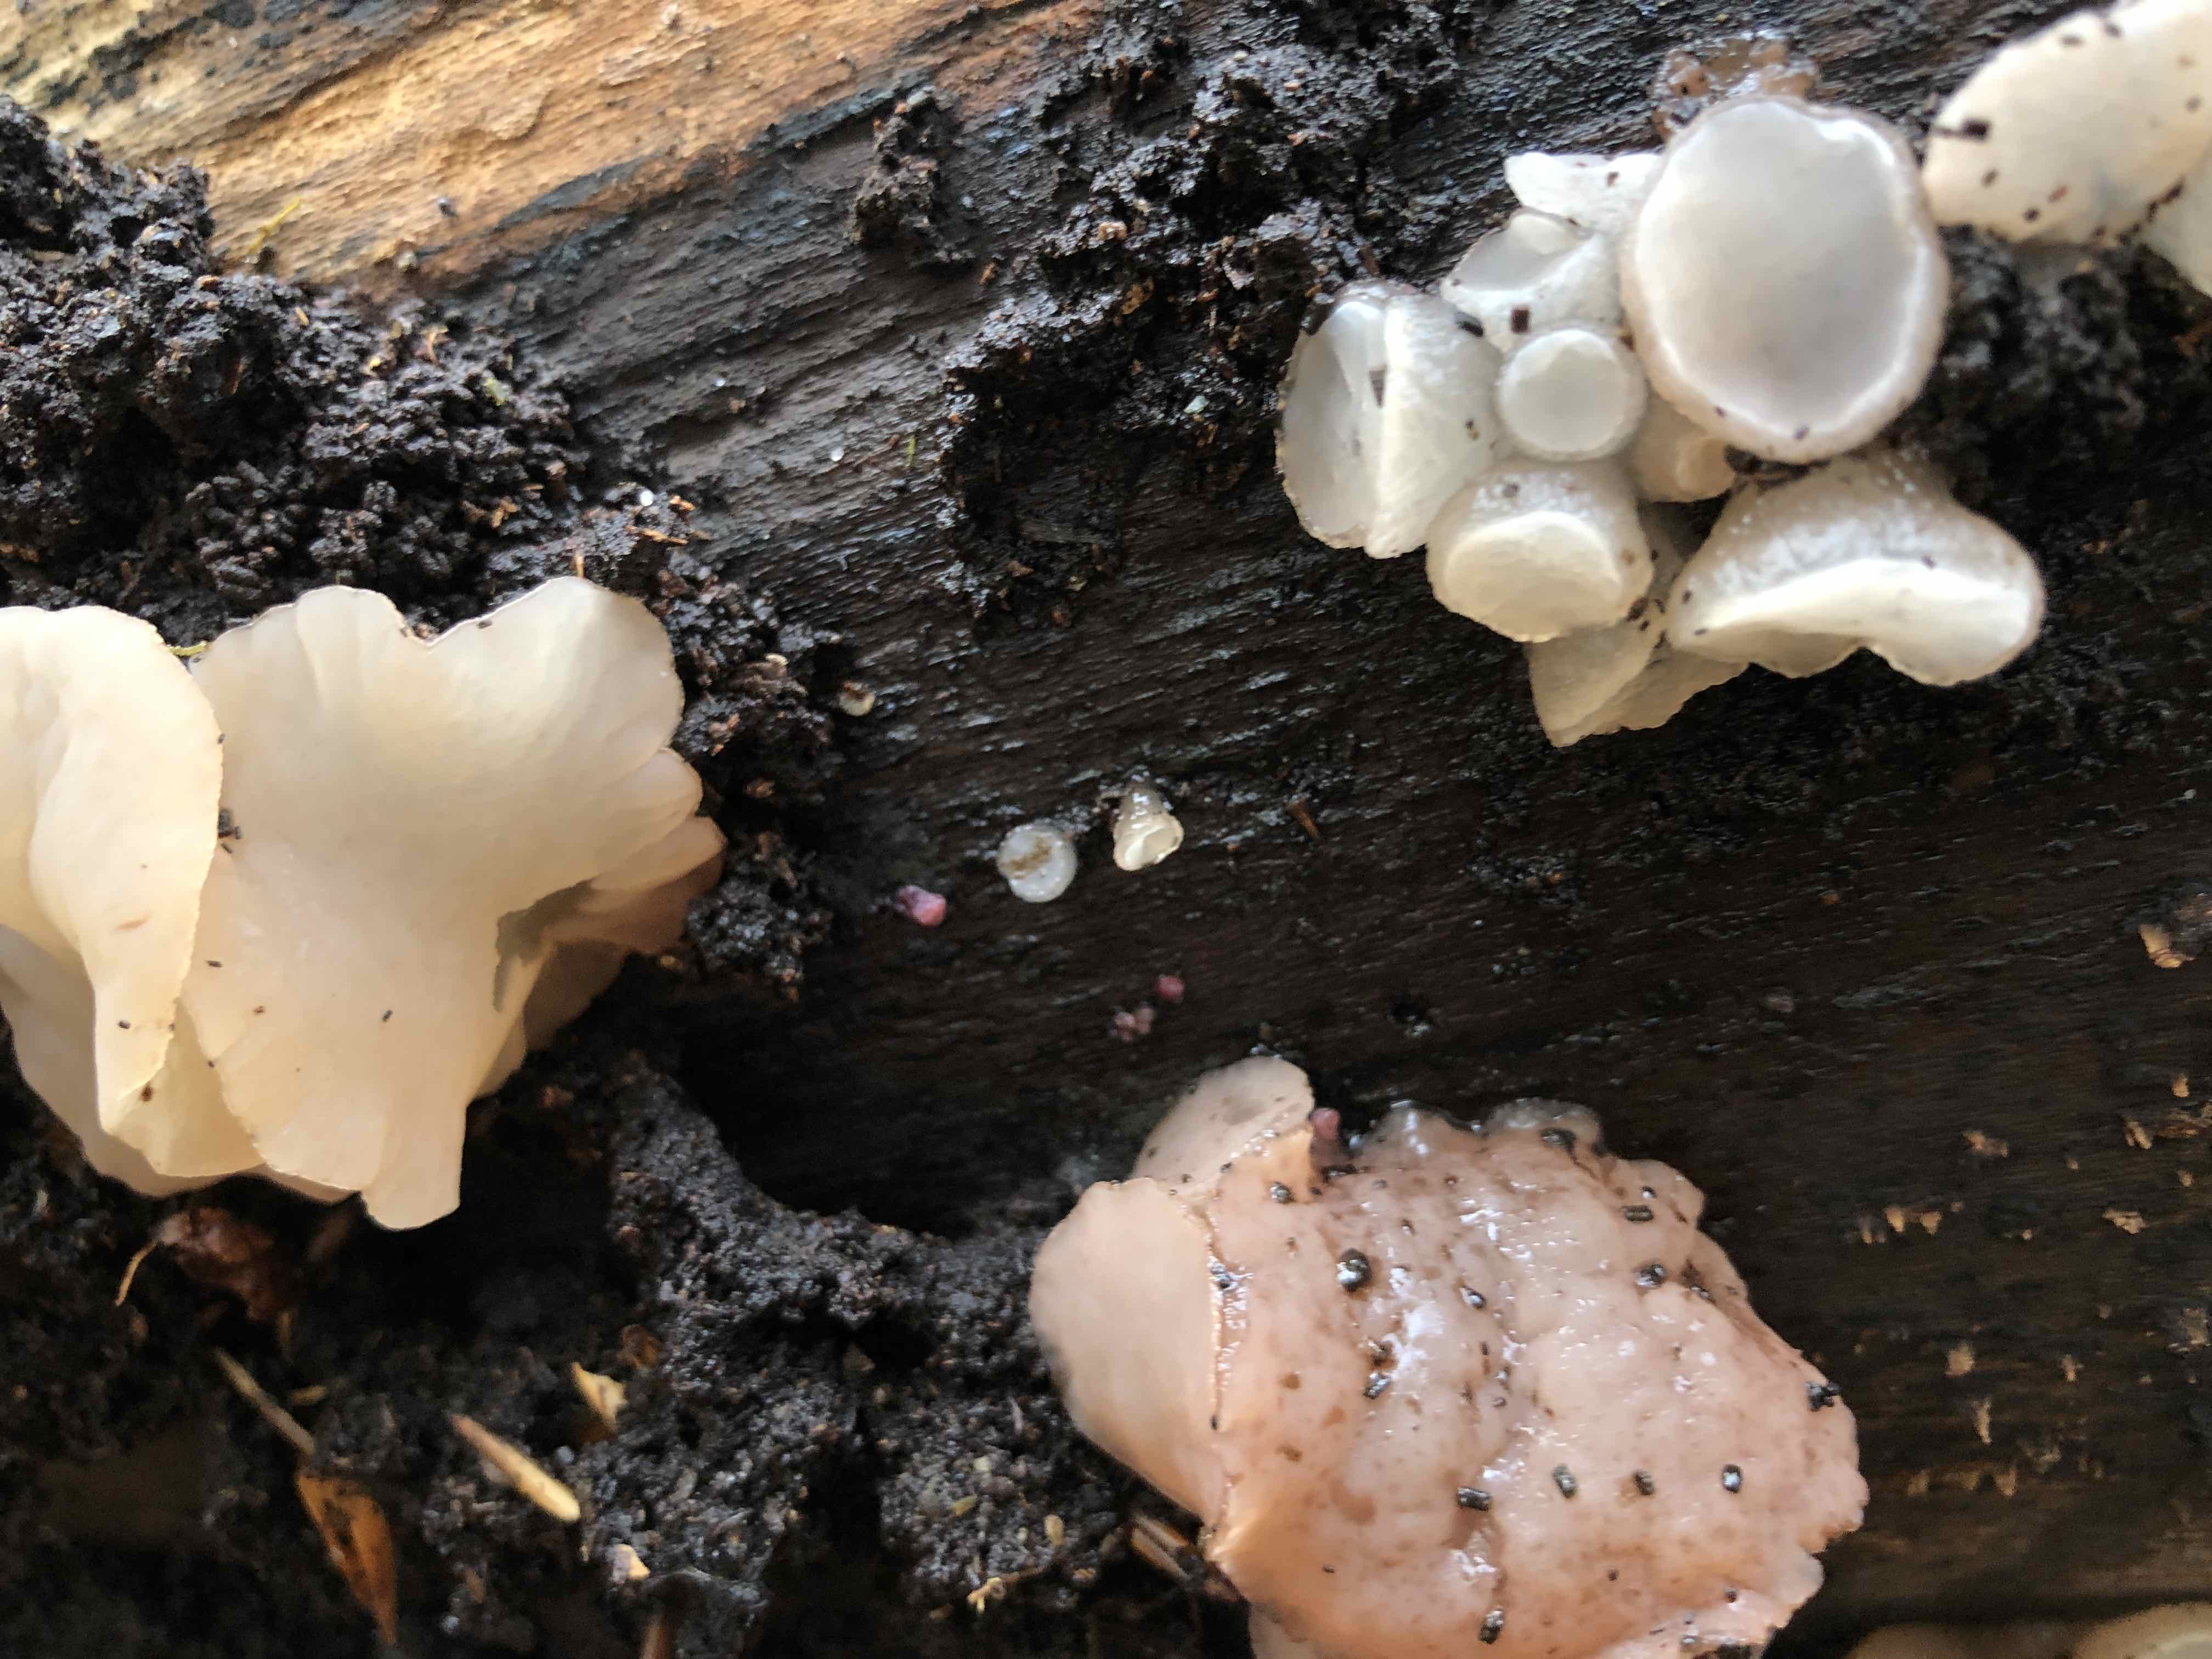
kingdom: Fungi
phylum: Ascomycota
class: Leotiomycetes
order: Helotiales
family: Gelatinodiscaceae
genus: Neobulgaria
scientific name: Neobulgaria pura
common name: bleg bævreskive
